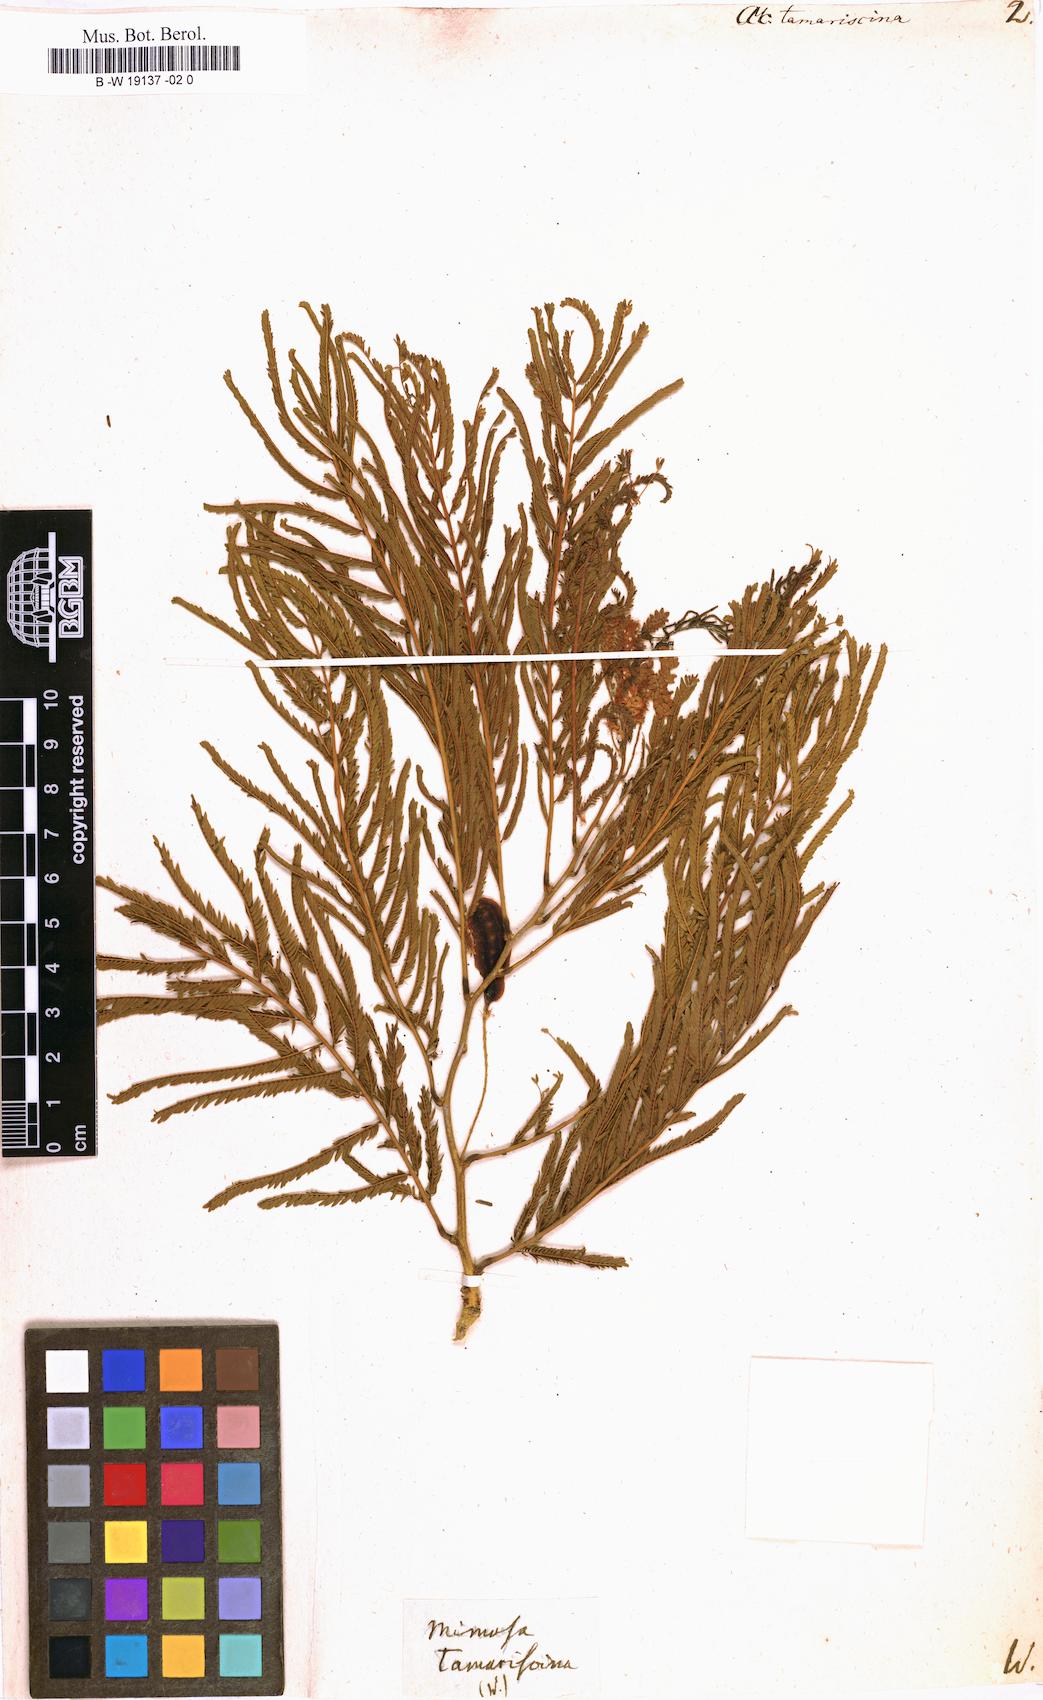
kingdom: Plantae
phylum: Tracheophyta
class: Magnoliopsida
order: Fabales
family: Fabaceae
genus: Gagnebina
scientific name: Gagnebina pterocarpa
